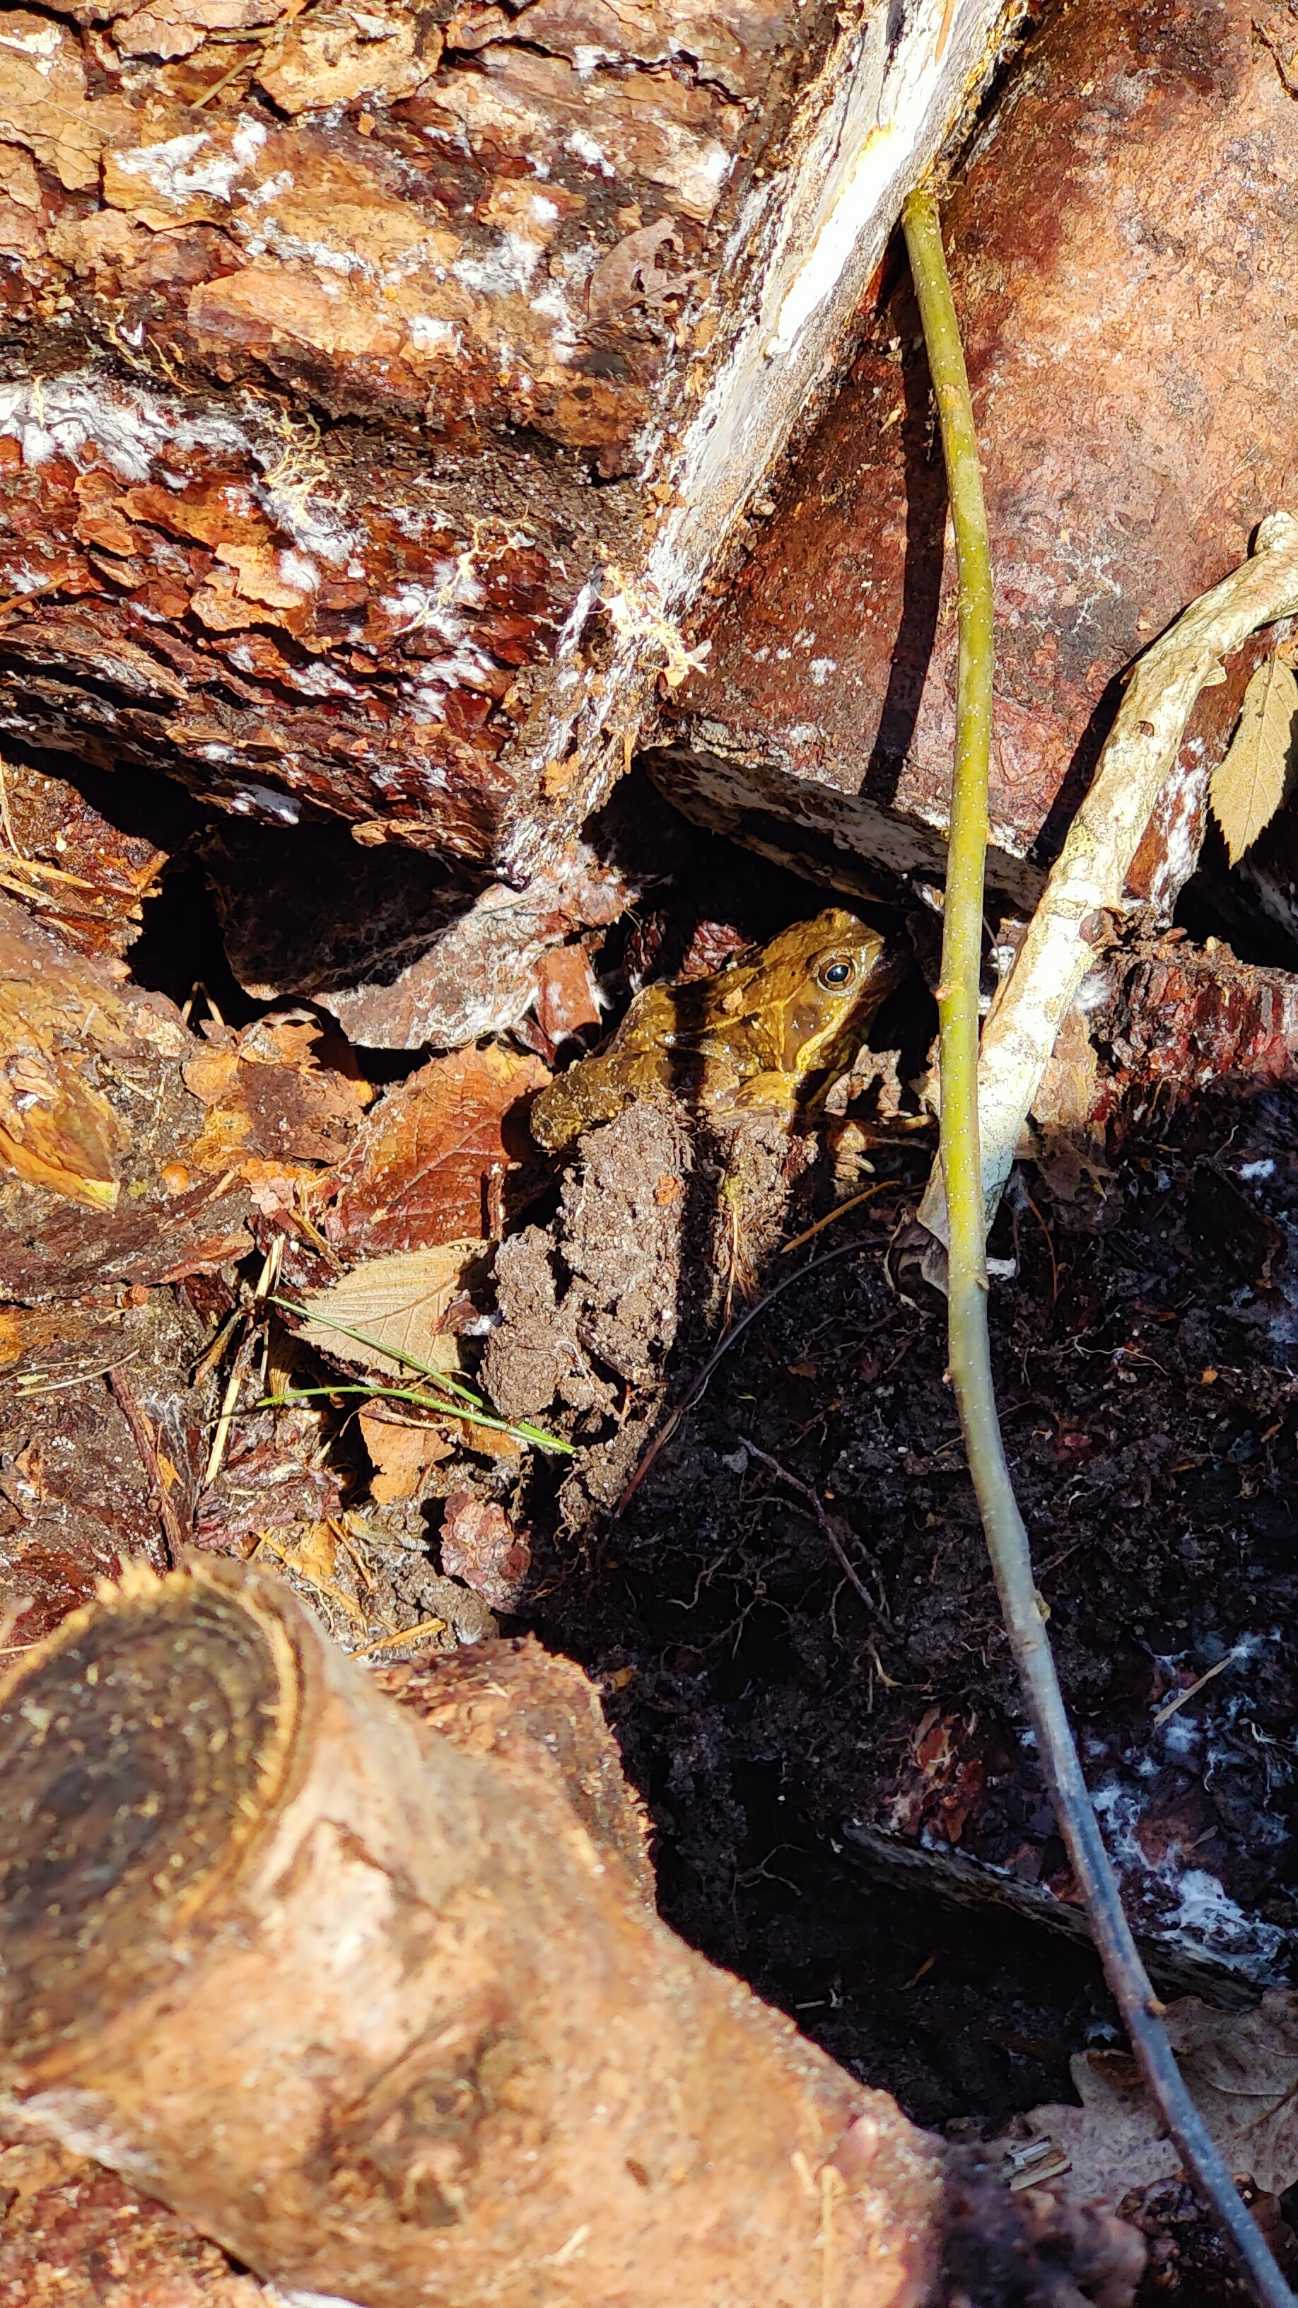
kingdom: Animalia
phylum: Chordata
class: Amphibia
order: Anura
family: Ranidae
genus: Rana
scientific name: Rana temporaria
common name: Butsnudet frø
